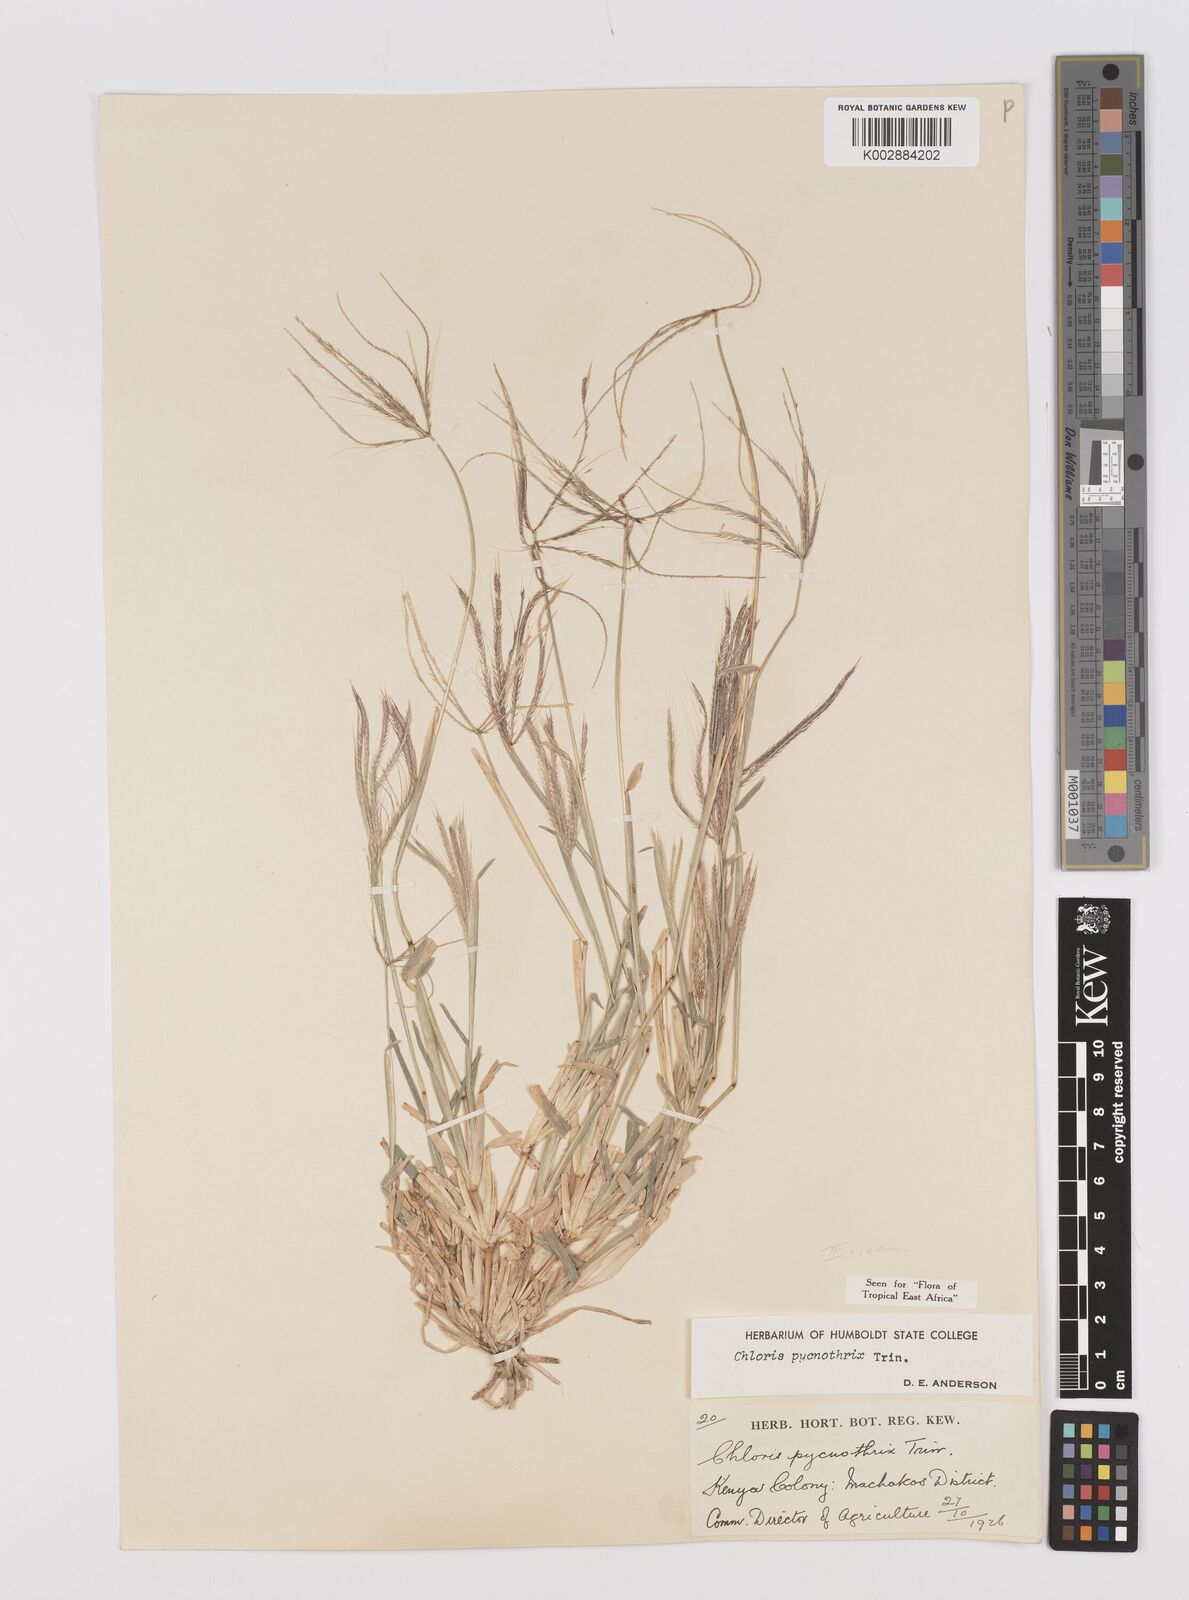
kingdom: Plantae
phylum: Tracheophyta
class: Liliopsida
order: Poales
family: Poaceae
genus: Chloris
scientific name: Chloris pycnothrix
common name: Spiderweb chloris
